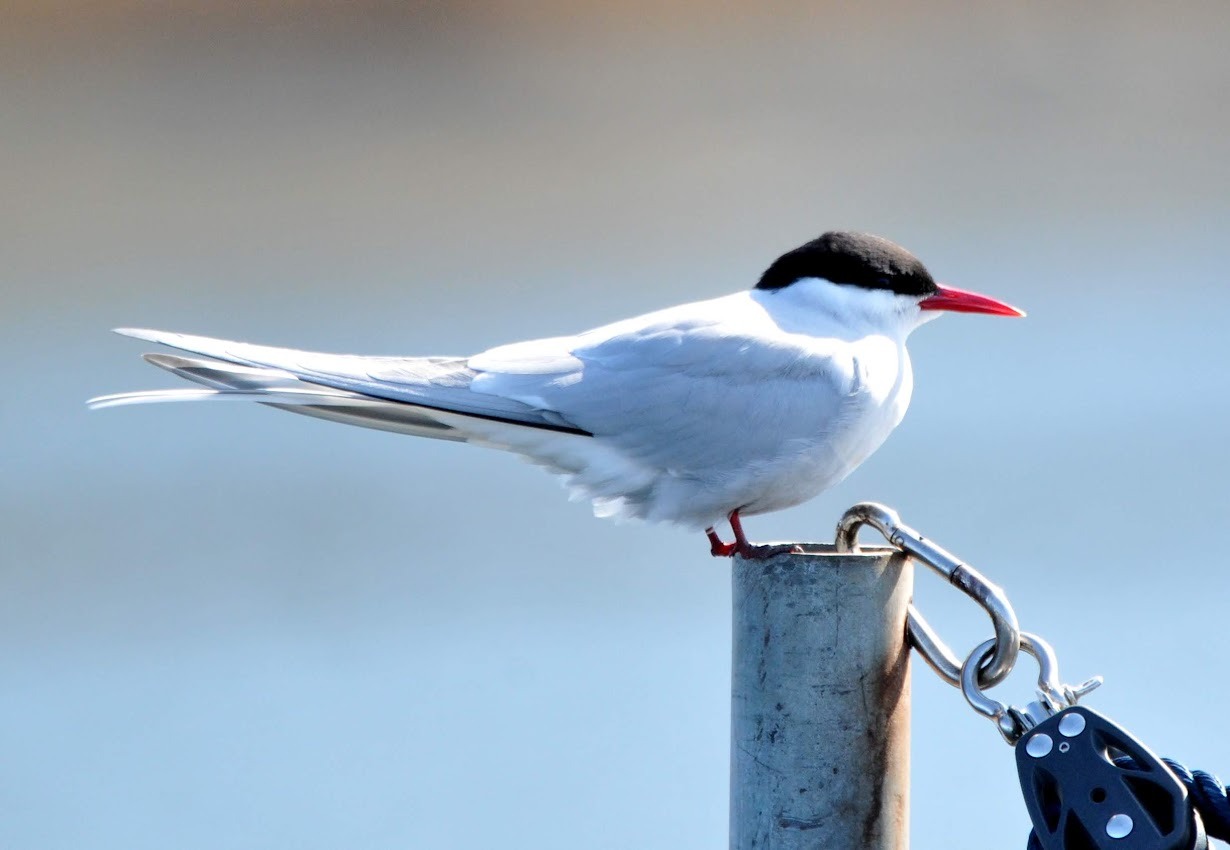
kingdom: Animalia
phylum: Chordata
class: Aves
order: Charadriiformes
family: Laridae
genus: Sterna
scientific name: Sterna paradisaea
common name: Havterne
